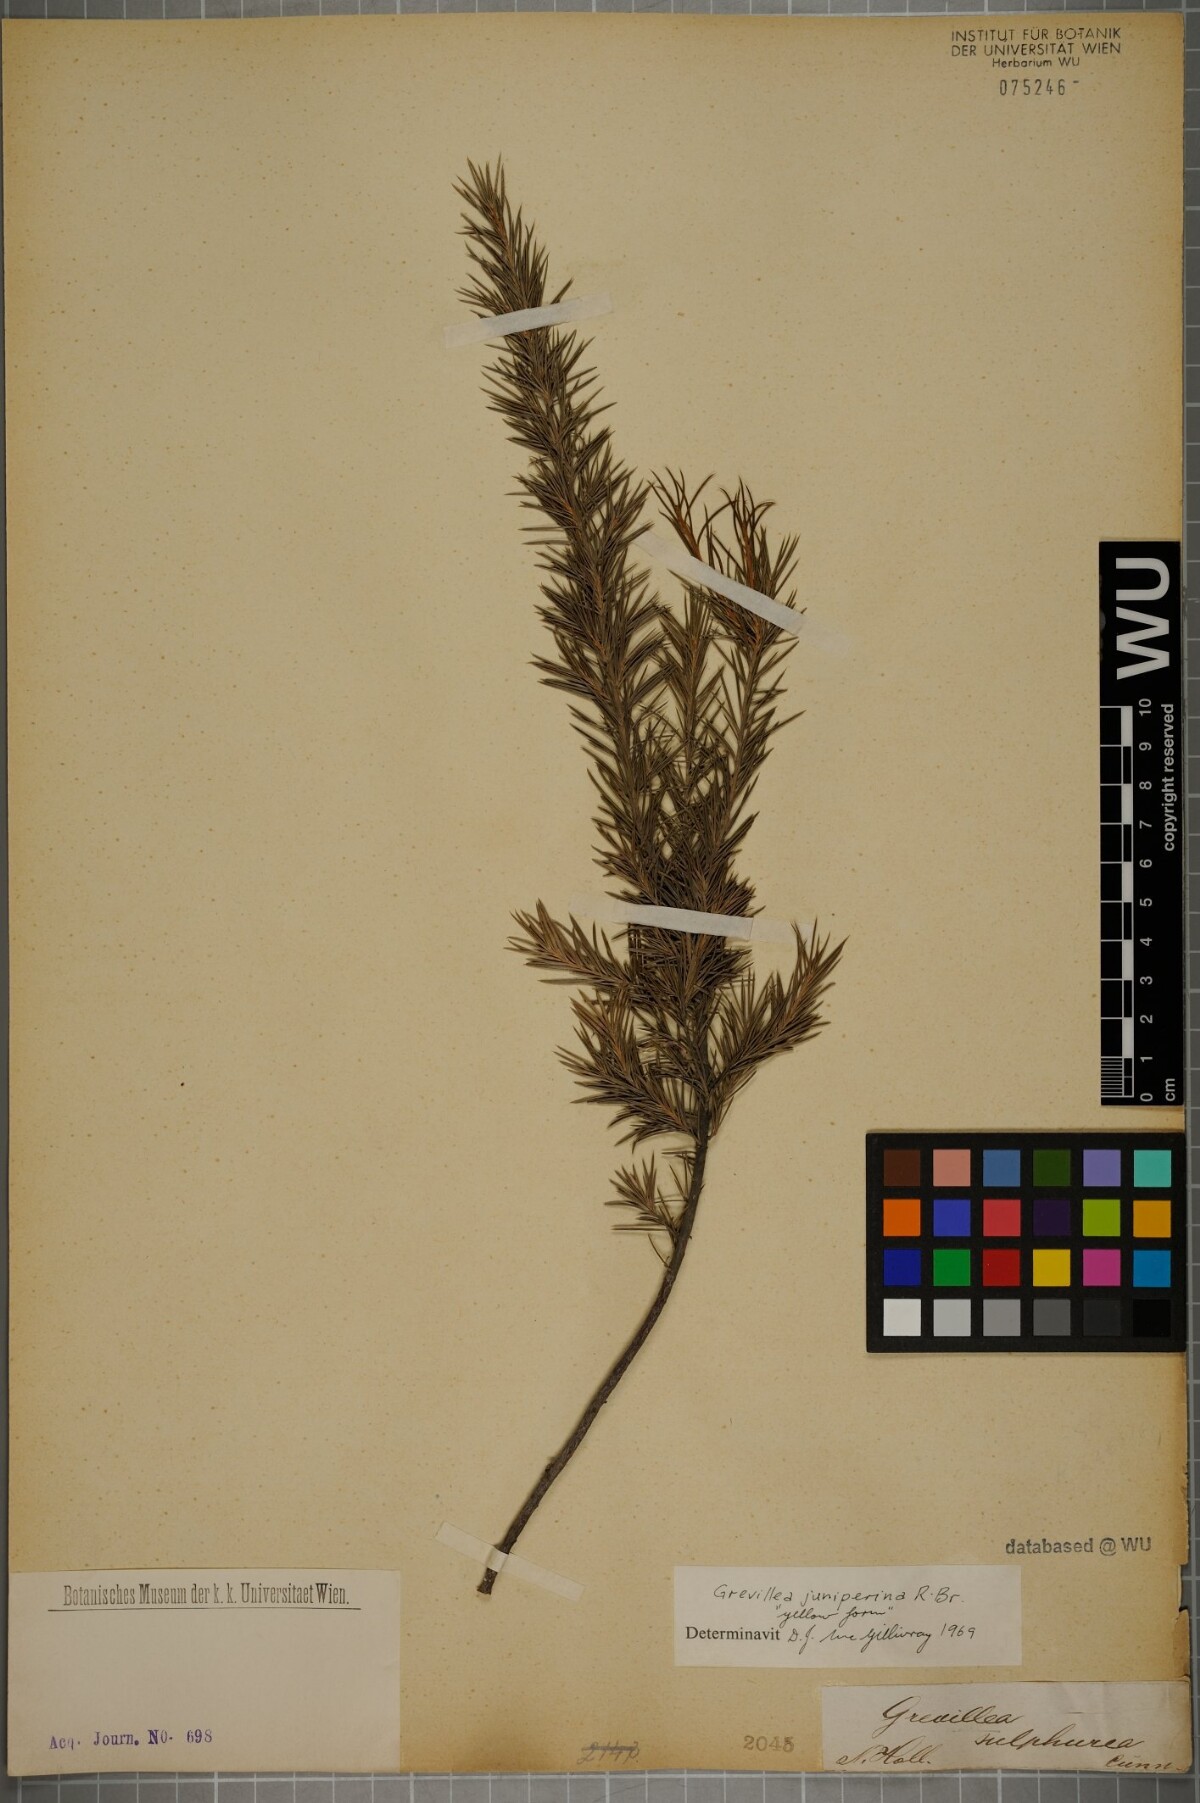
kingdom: Plantae
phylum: Tracheophyta
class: Magnoliopsida
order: Proteales
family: Proteaceae
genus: Grevillea
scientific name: Grevillea juniperina
